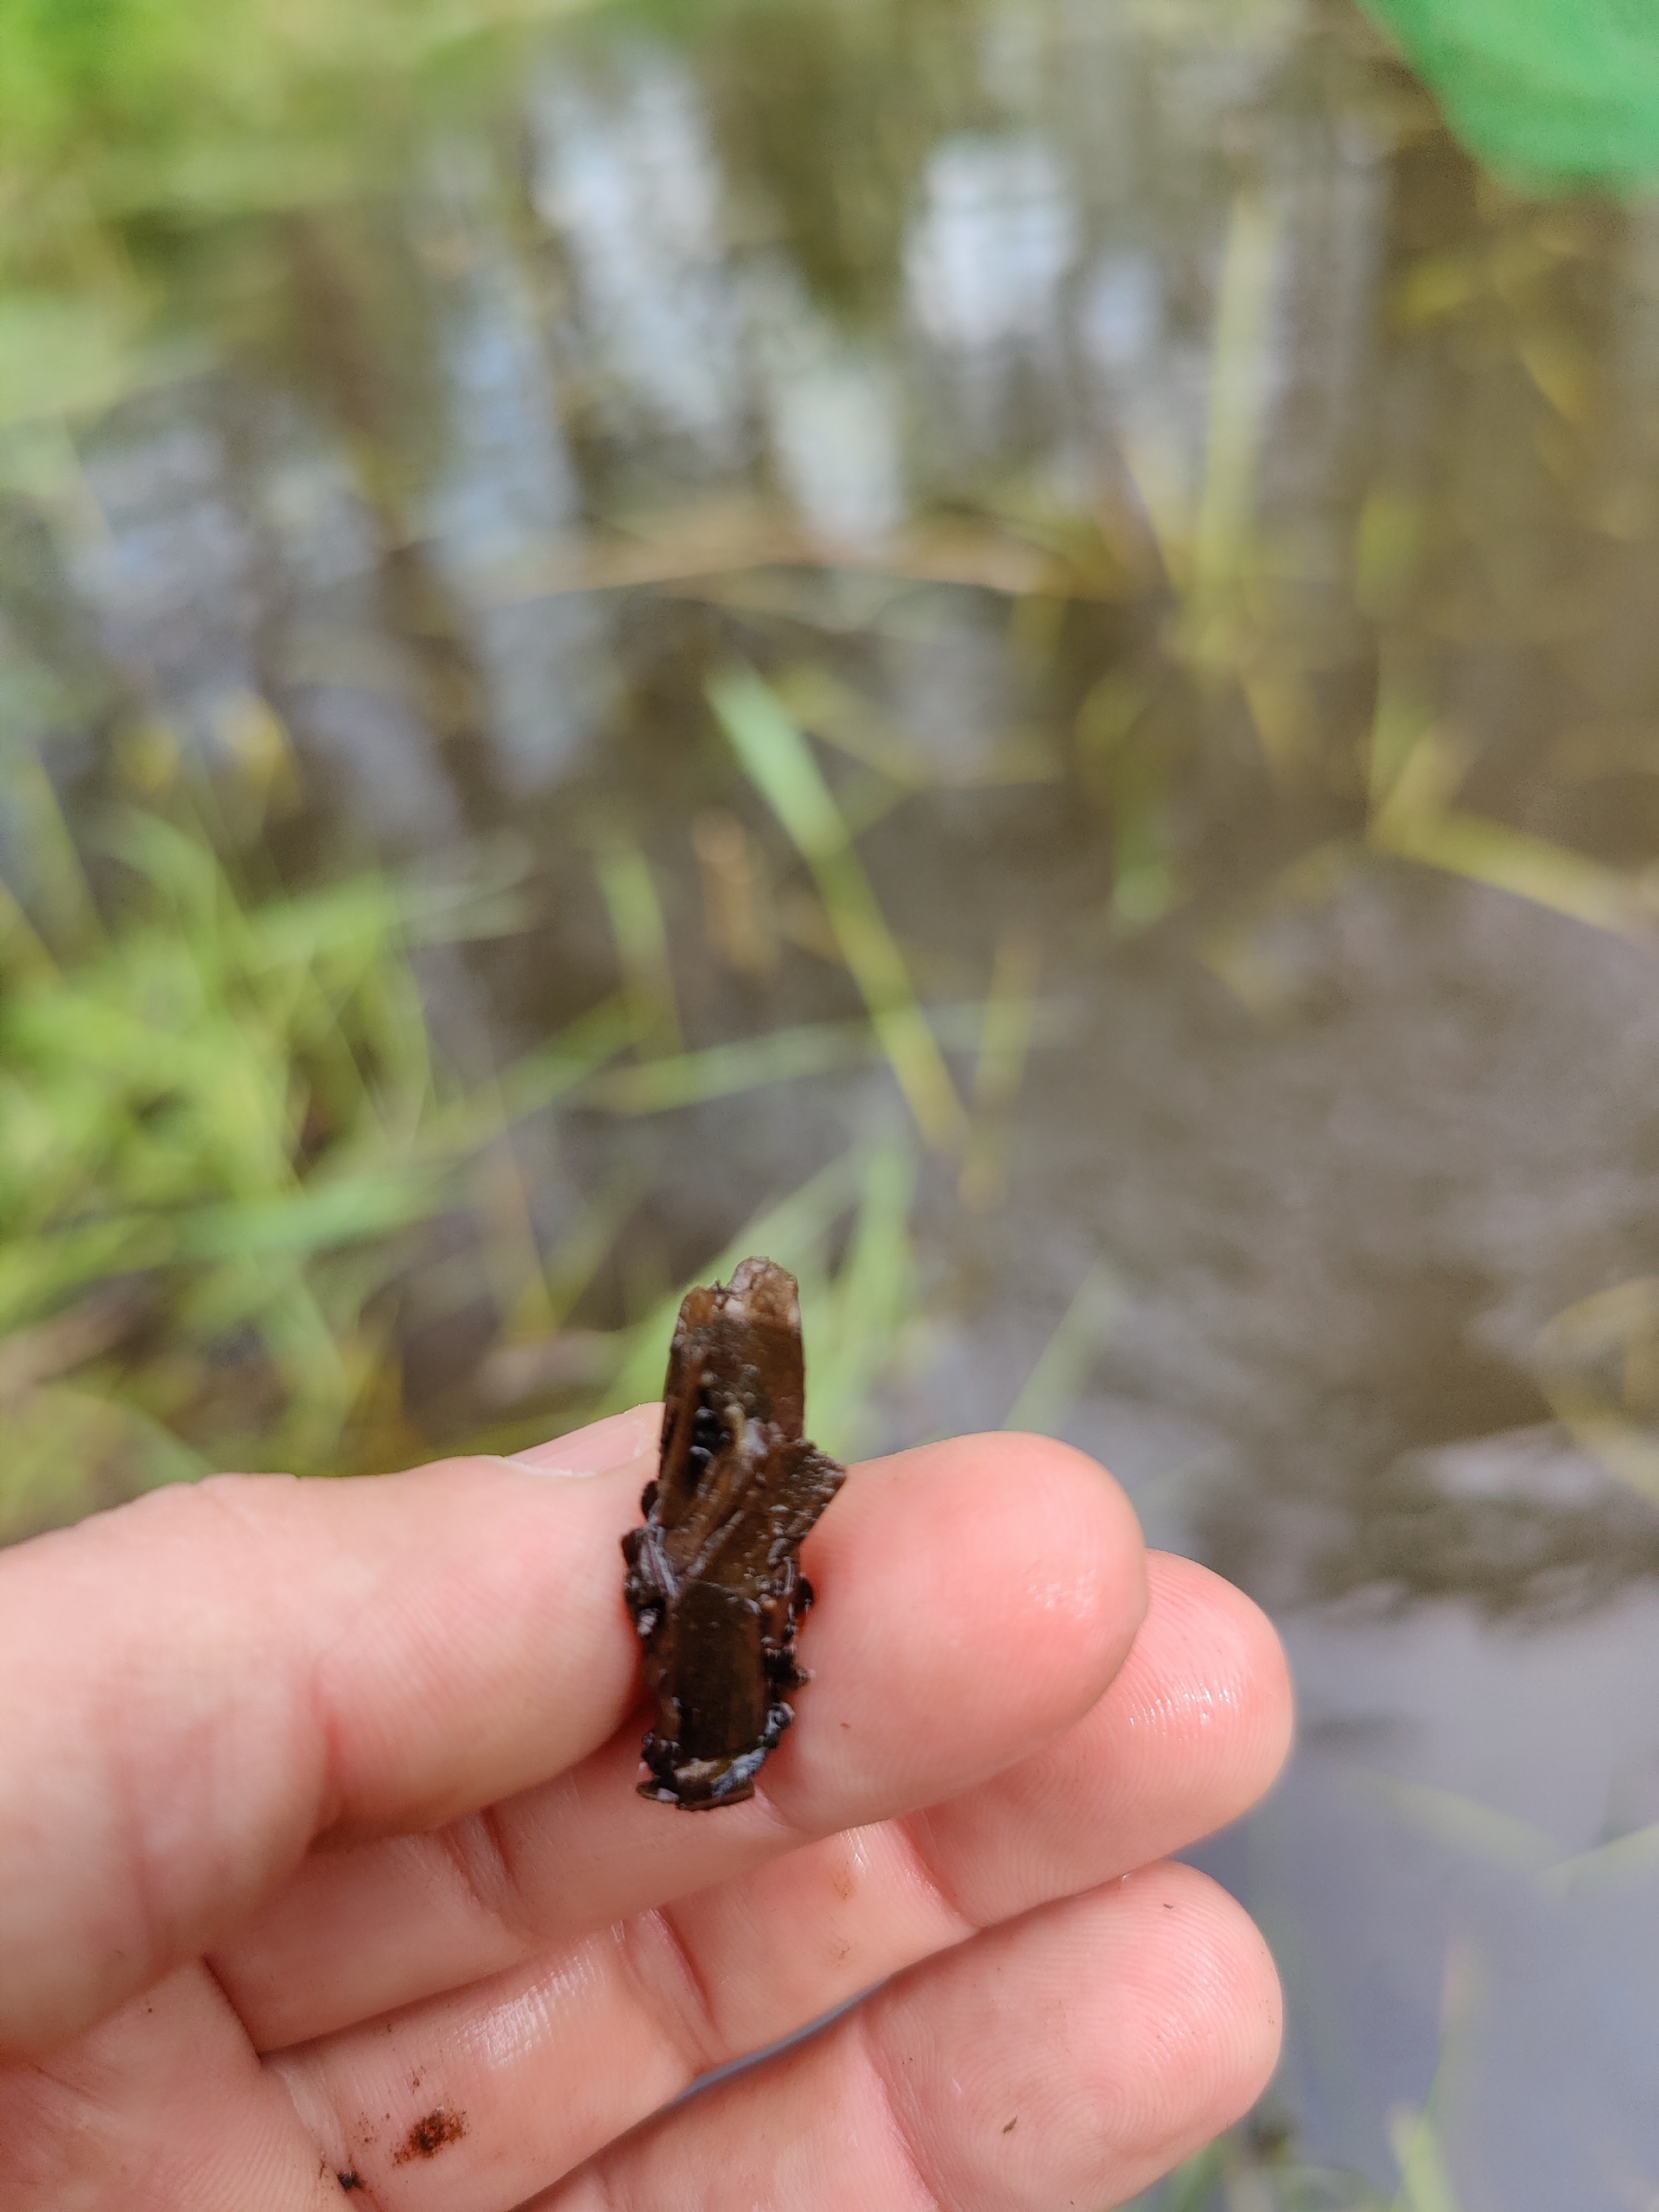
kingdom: Animalia
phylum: Arthropoda
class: Insecta
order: Trichoptera
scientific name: Trichoptera
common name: Vårfluer
